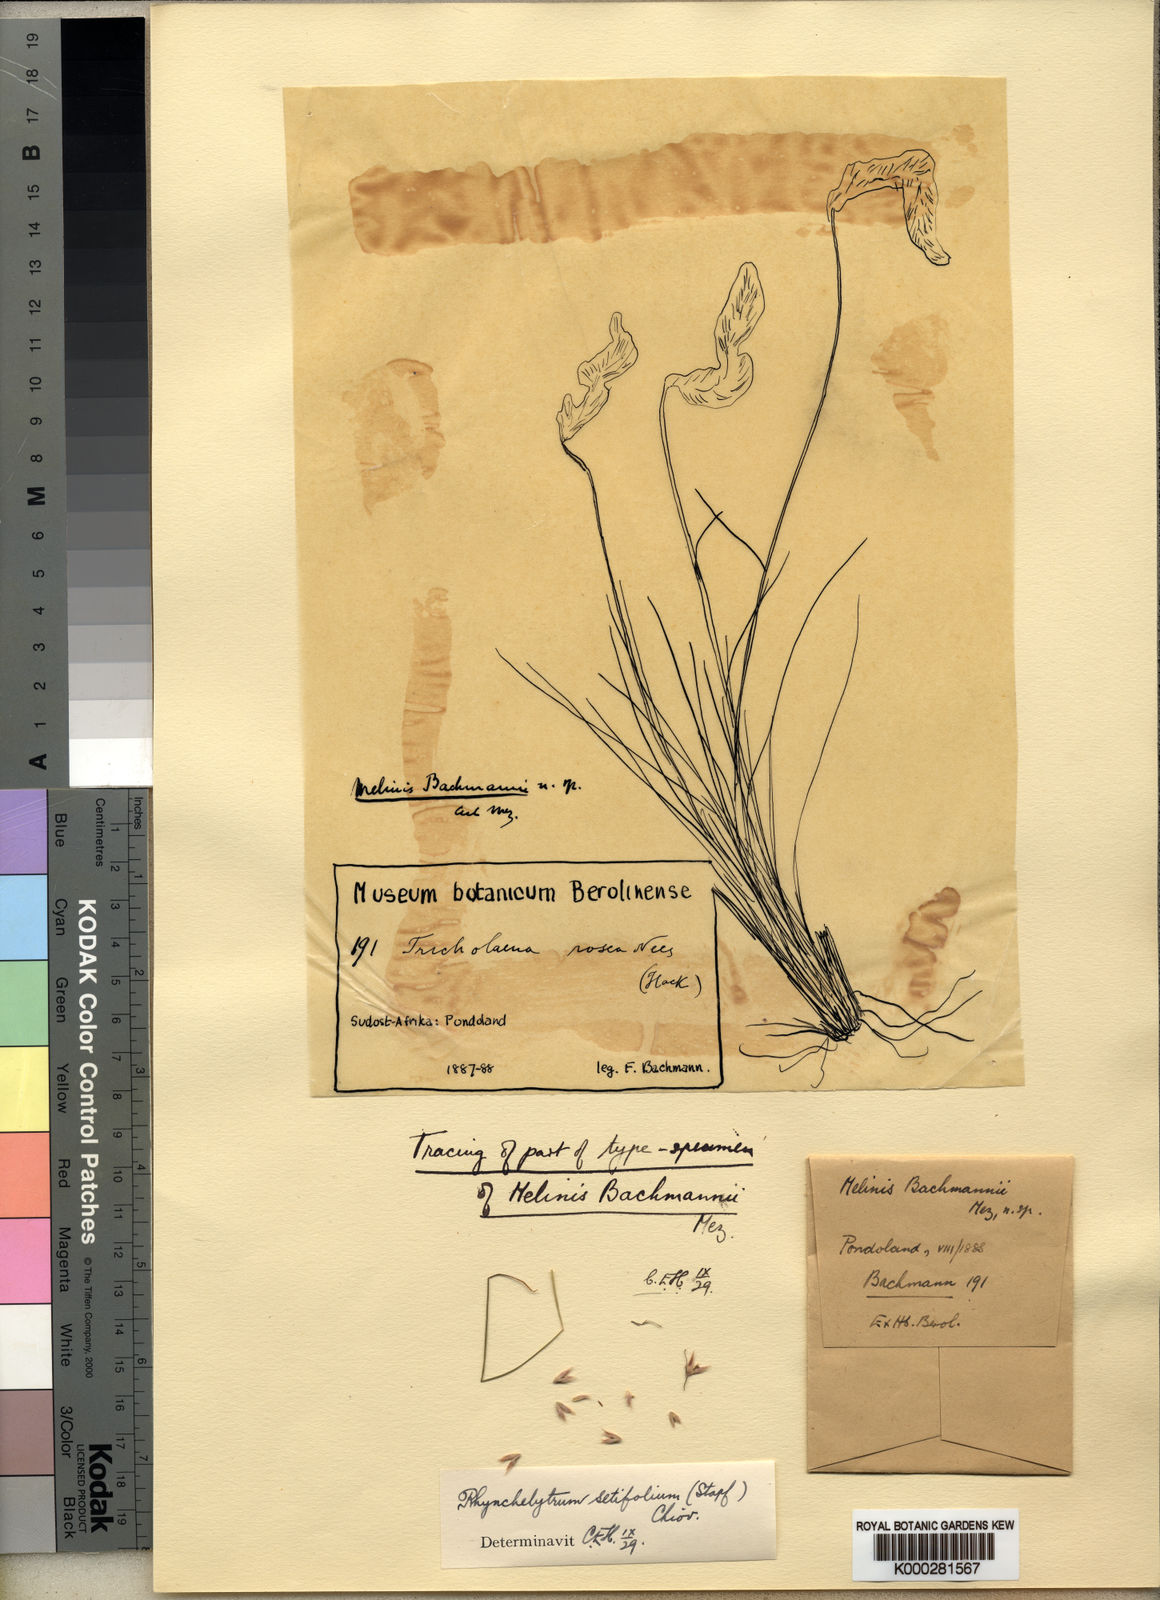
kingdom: Plantae
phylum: Tracheophyta
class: Liliopsida
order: Poales
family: Poaceae
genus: Melinis
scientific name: Melinis nerviglumis
